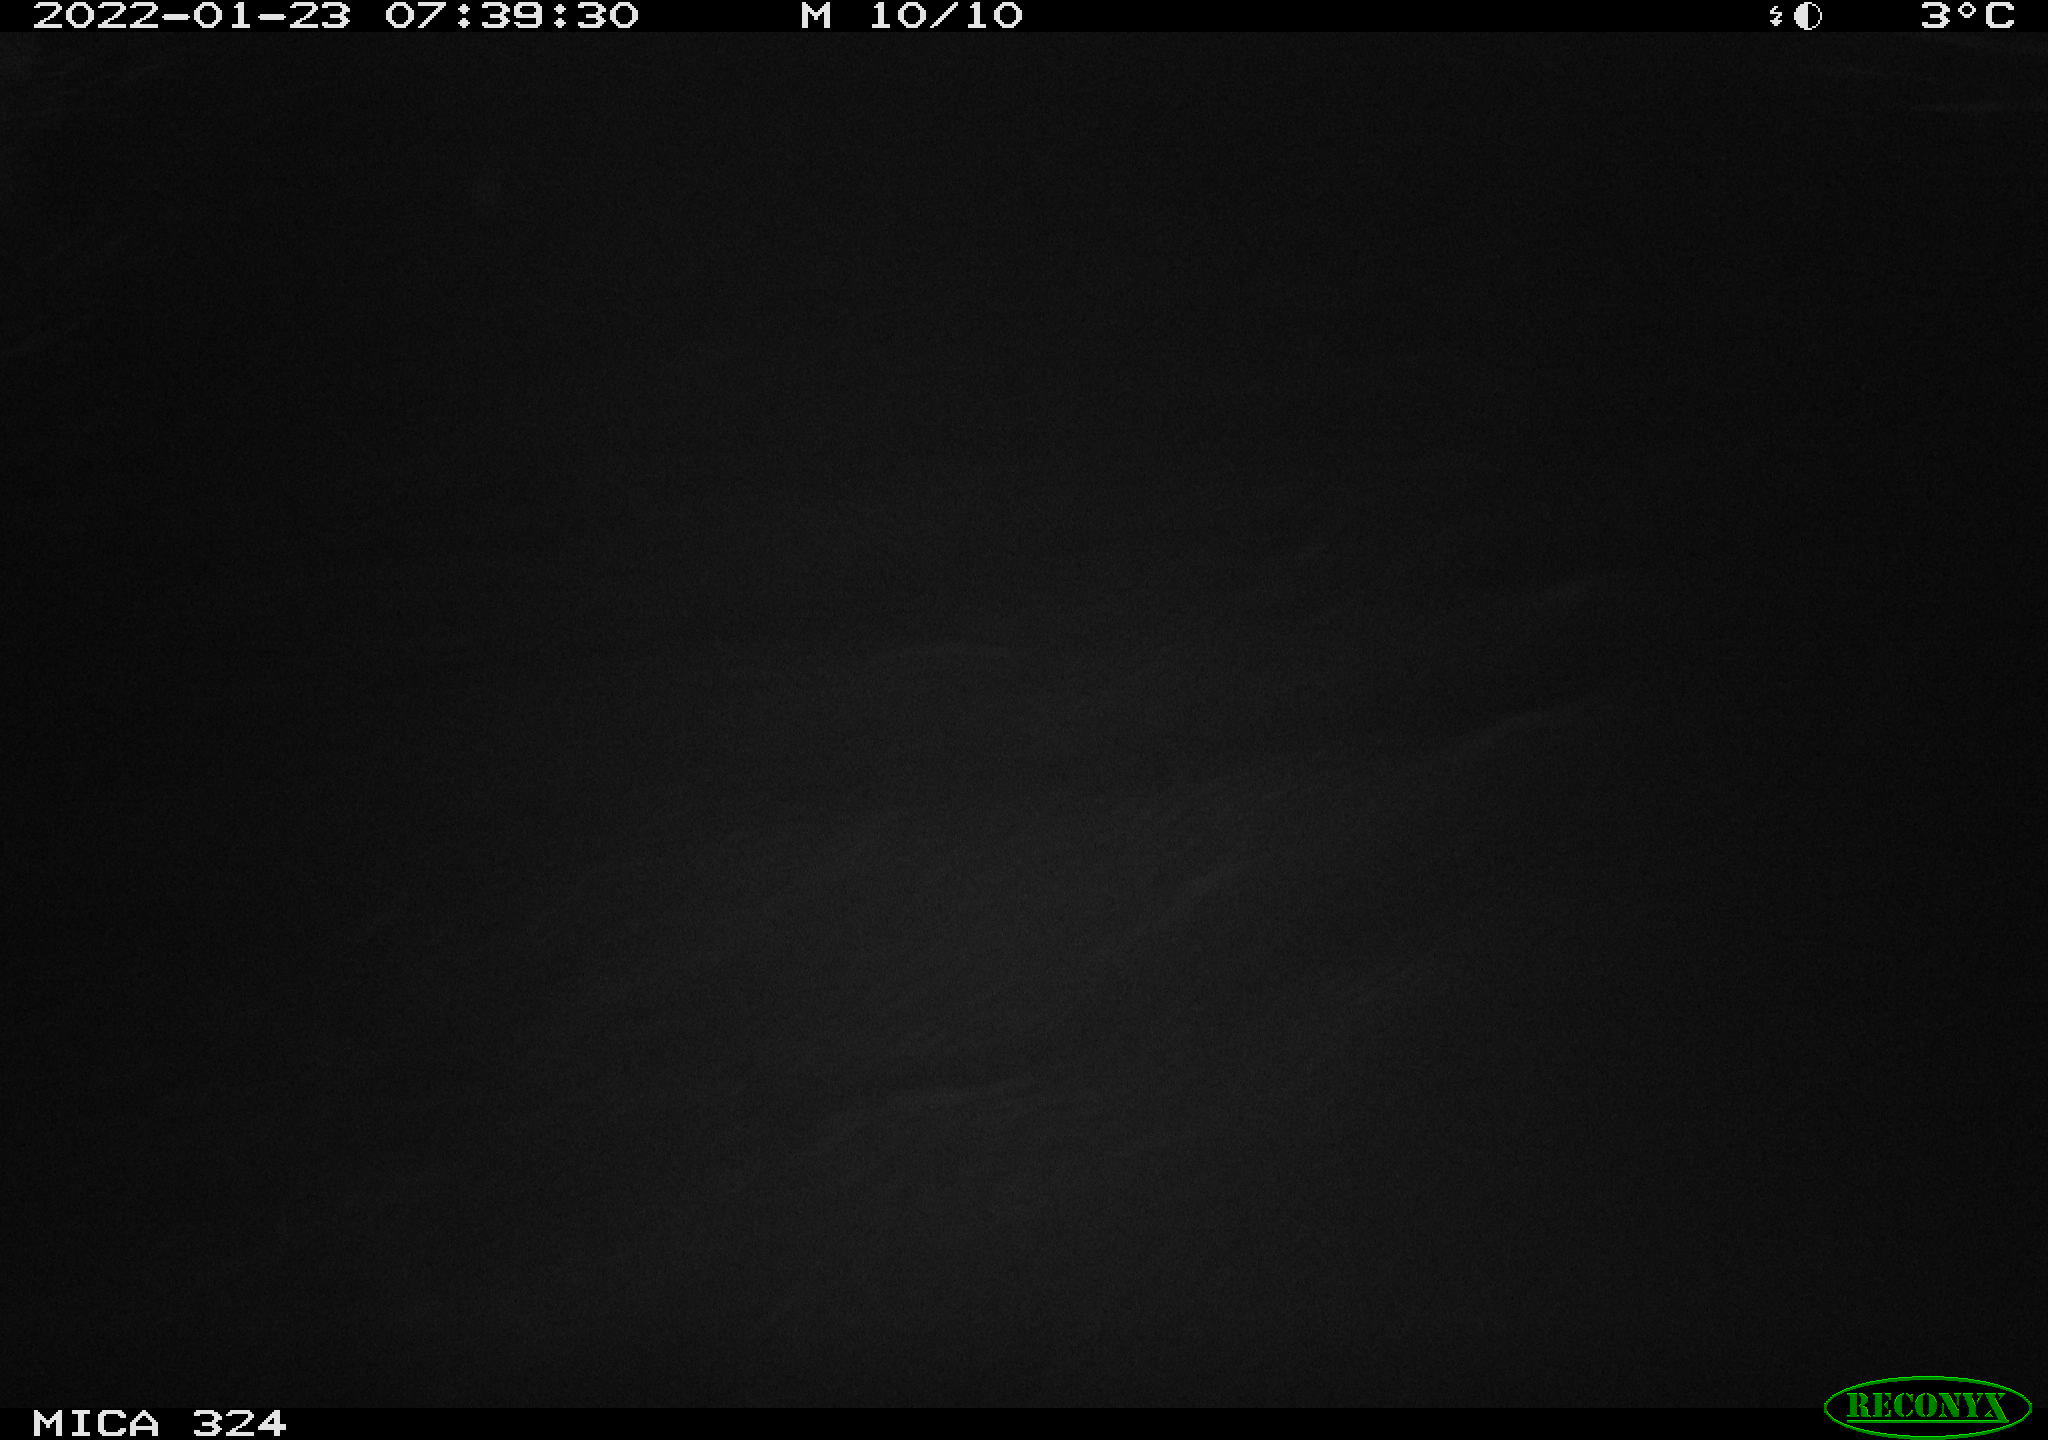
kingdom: Animalia
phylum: Chordata
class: Mammalia
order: Rodentia
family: Cricetidae
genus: Ondatra
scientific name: Ondatra zibethicus
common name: Muskrat
